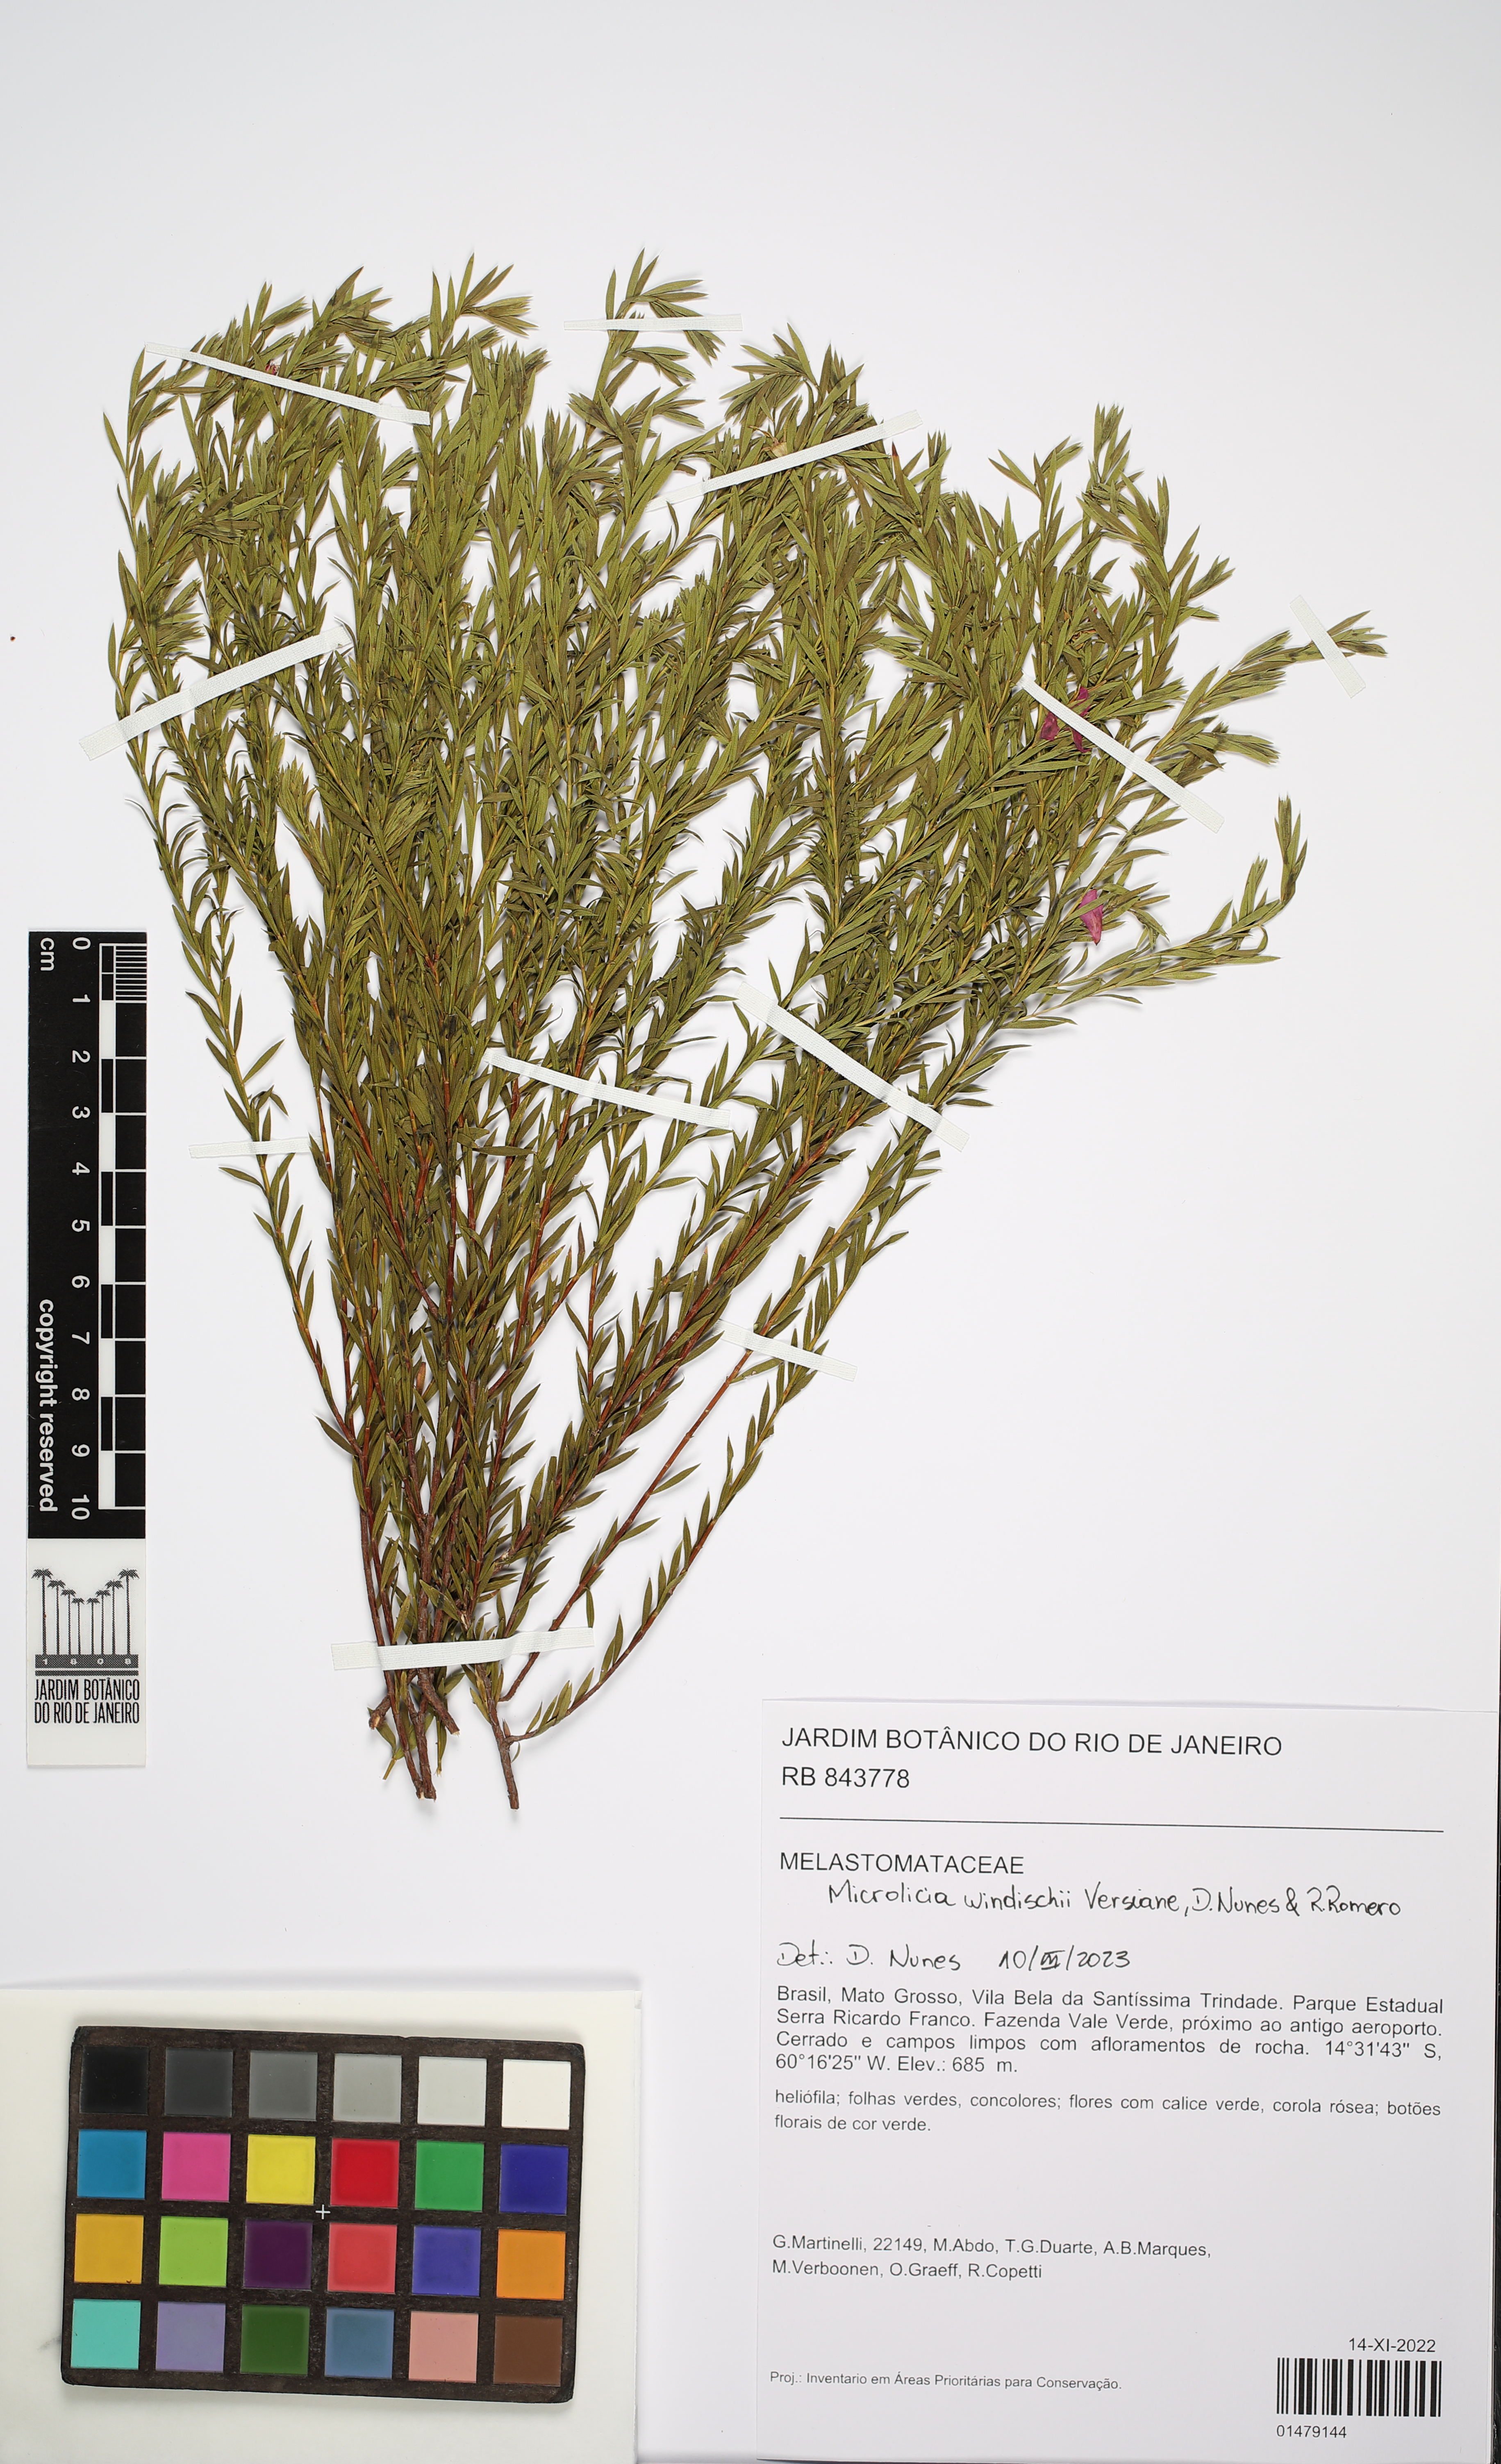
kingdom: Plantae
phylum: Tracheophyta
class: Magnoliopsida
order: Myrtales
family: Melastomataceae
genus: Microlicia
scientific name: Microlicia windischii
